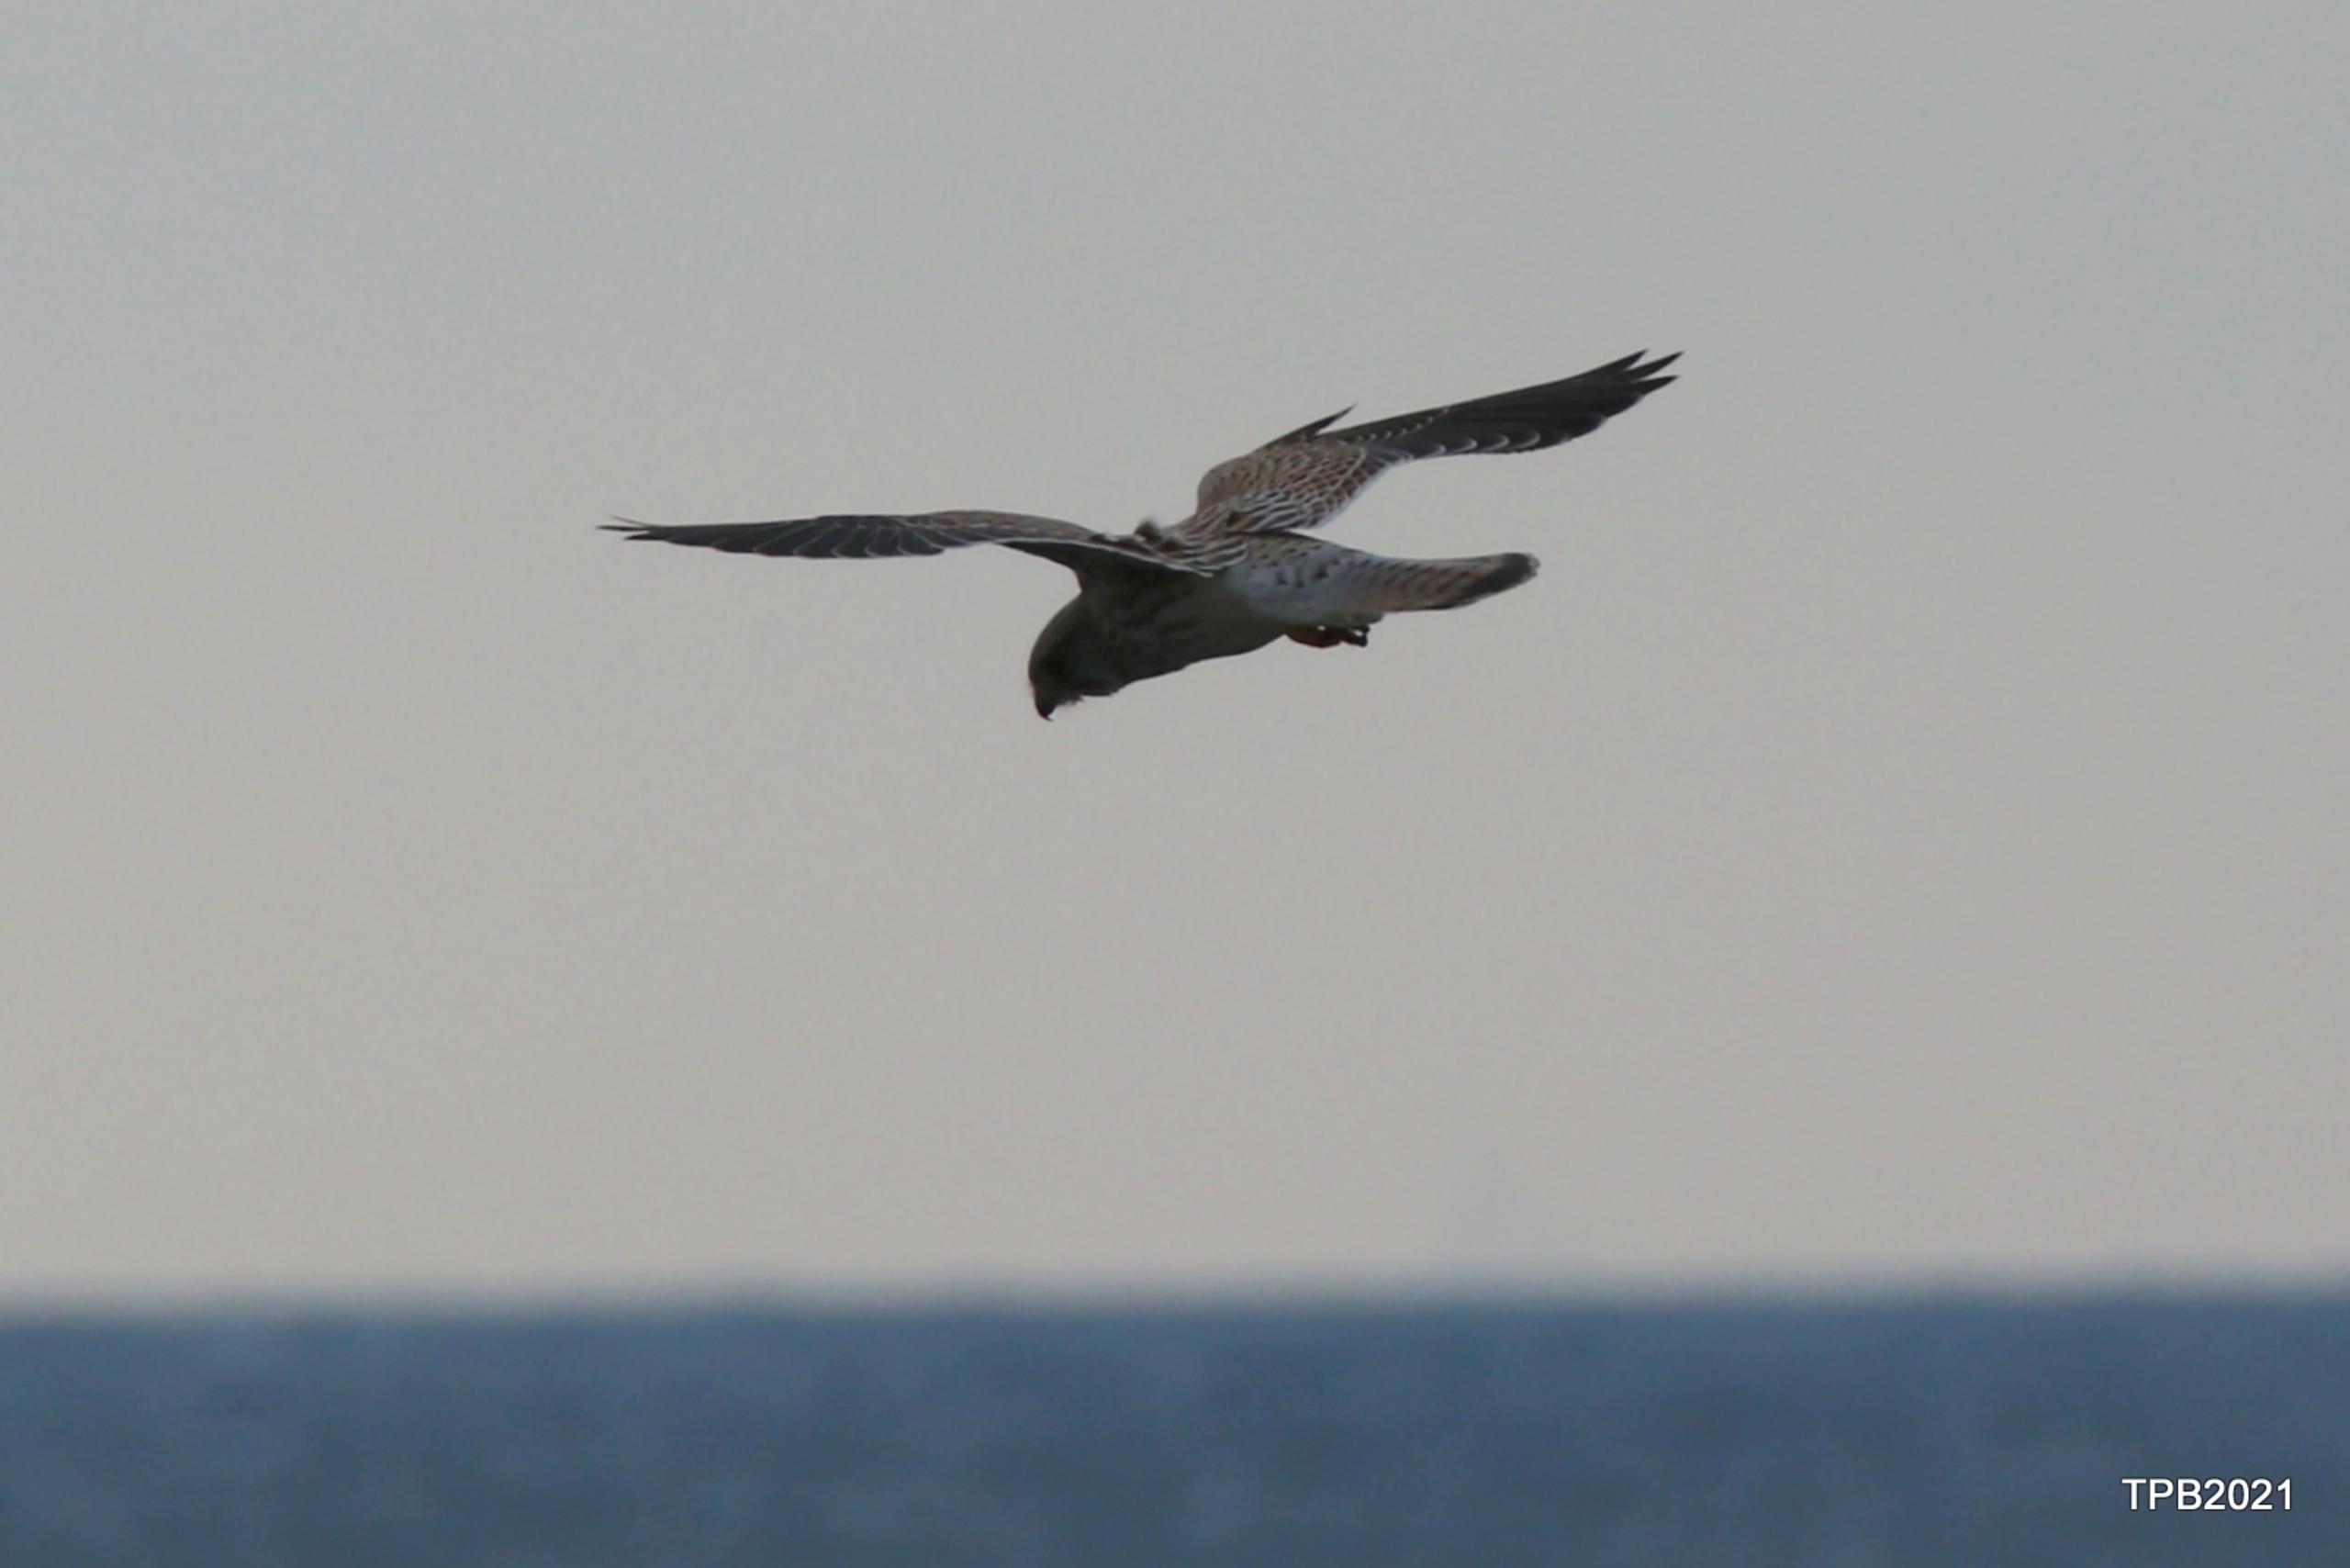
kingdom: Animalia
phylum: Chordata
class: Aves
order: Falconiformes
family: Falconidae
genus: Falco
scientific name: Falco tinnunculus
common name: Tårnfalk
